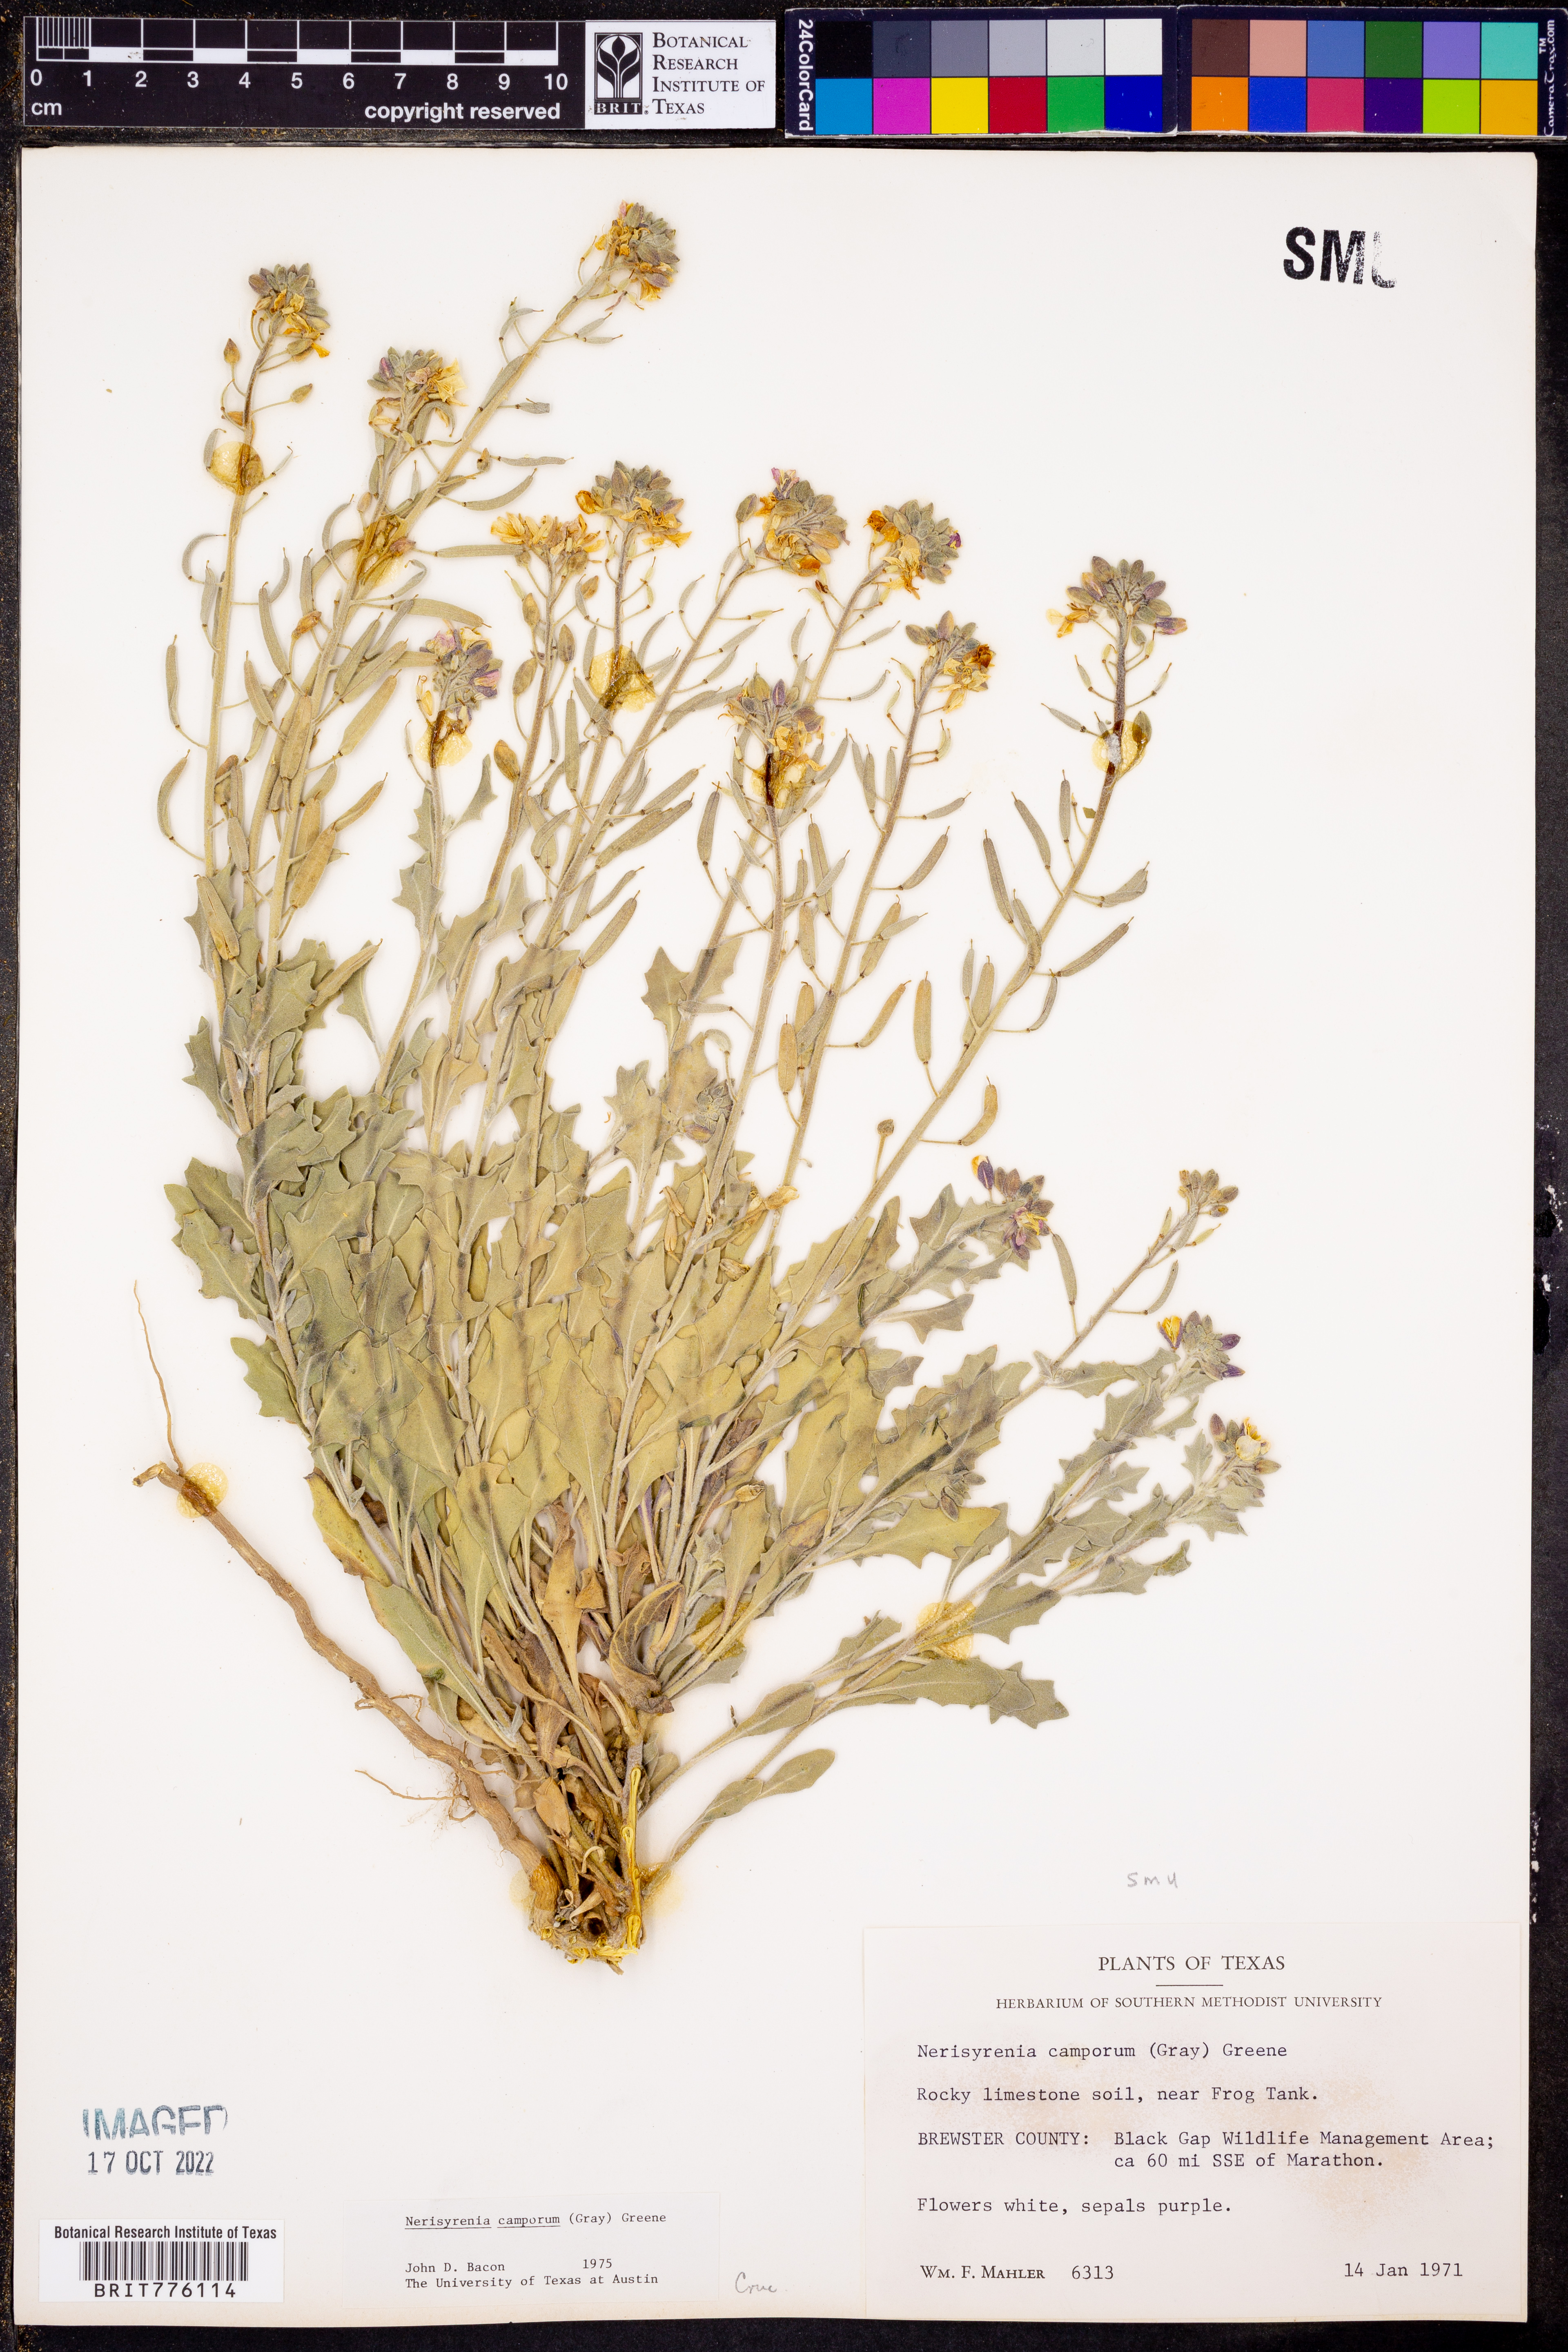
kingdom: Plantae
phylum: Tracheophyta
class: Magnoliopsida
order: Brassicales
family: Brassicaceae
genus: Nerisyrenia
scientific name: Nerisyrenia camporum
